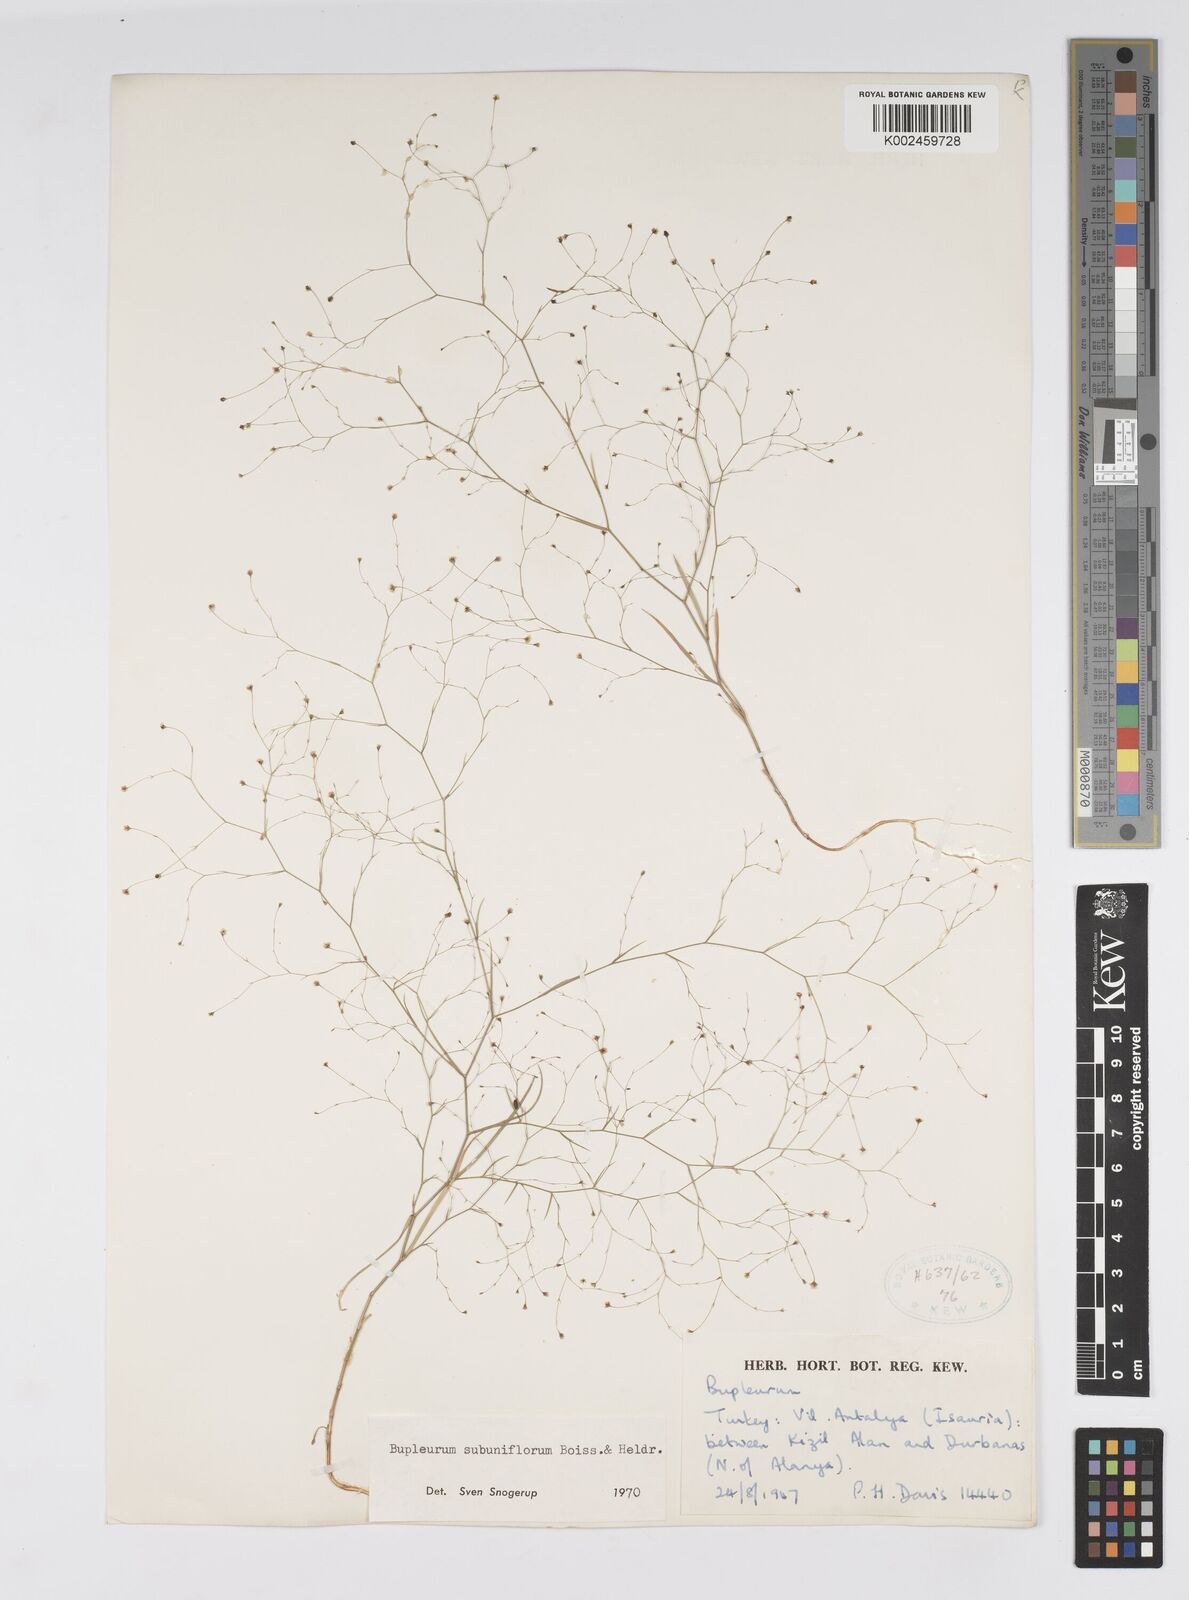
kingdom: Plantae
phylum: Tracheophyta
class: Magnoliopsida
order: Apiales
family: Apiaceae
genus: Bupleurum
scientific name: Bupleurum subuniflorum
